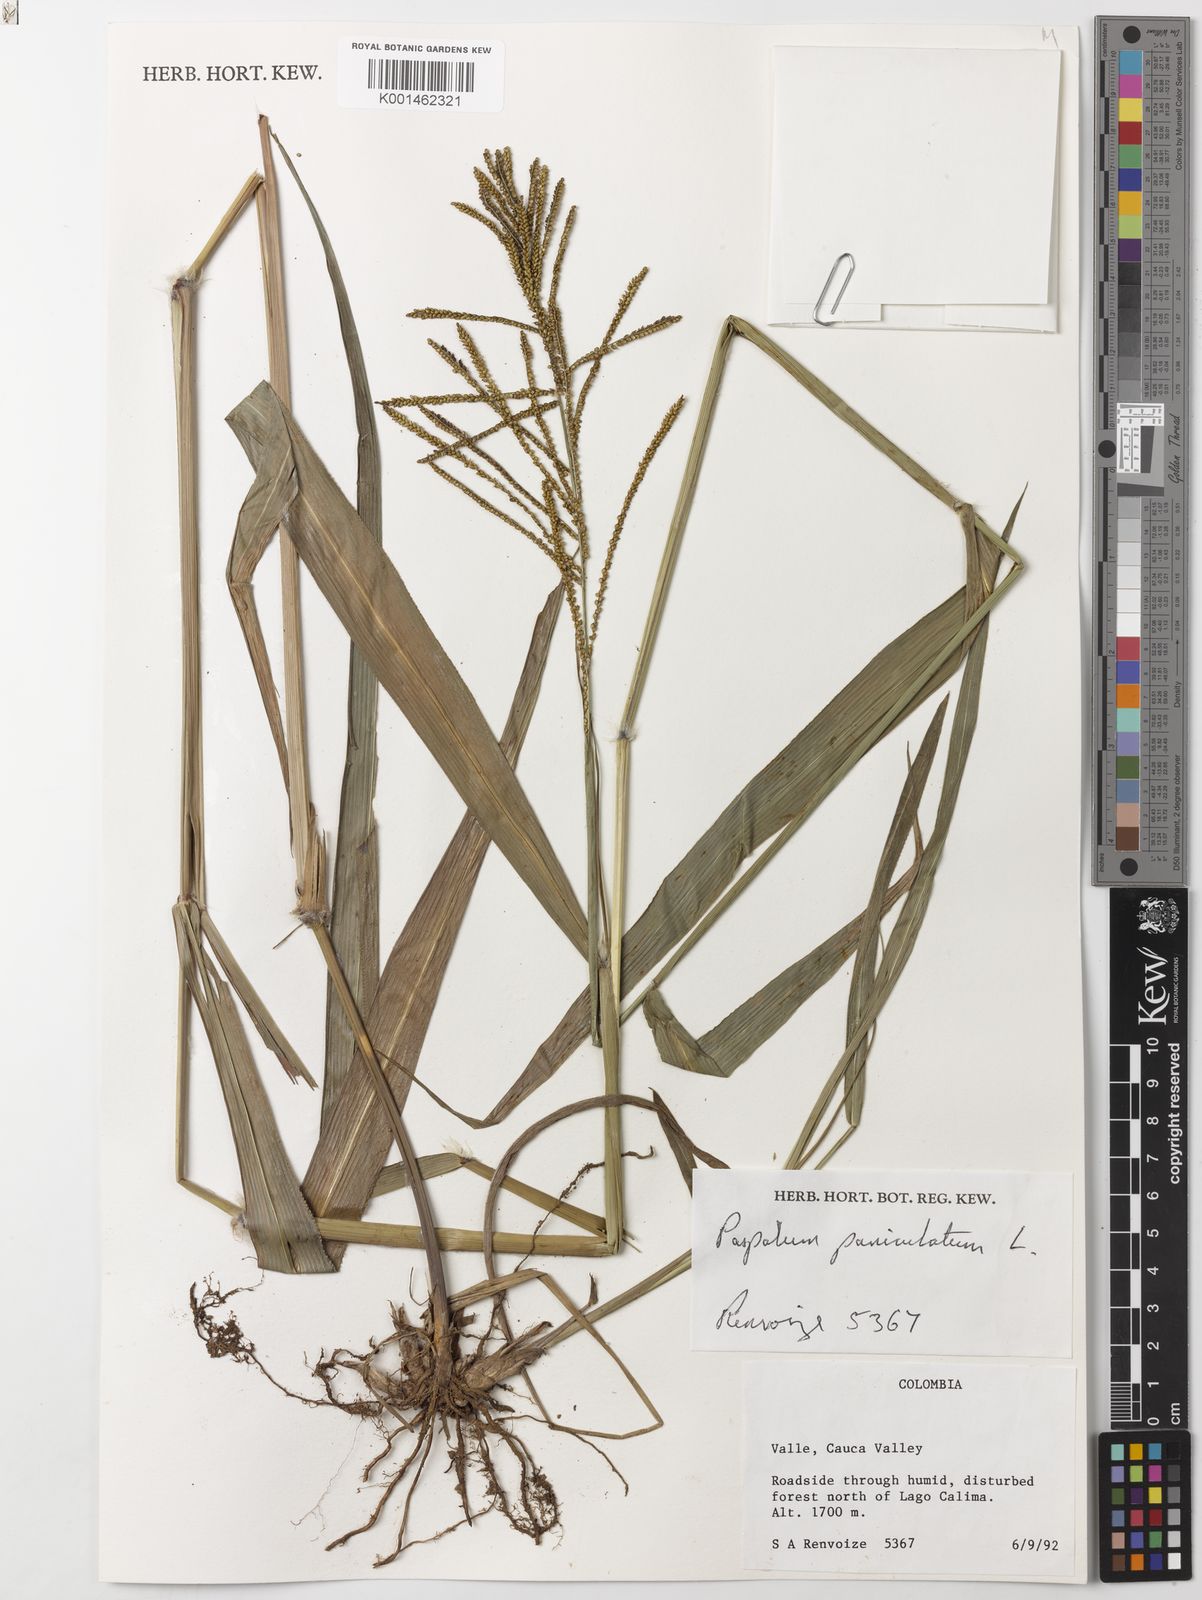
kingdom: Plantae
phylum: Tracheophyta
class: Liliopsida
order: Poales
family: Poaceae
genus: Paspalum
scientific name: Paspalum paniculatum
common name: Arrocillo
